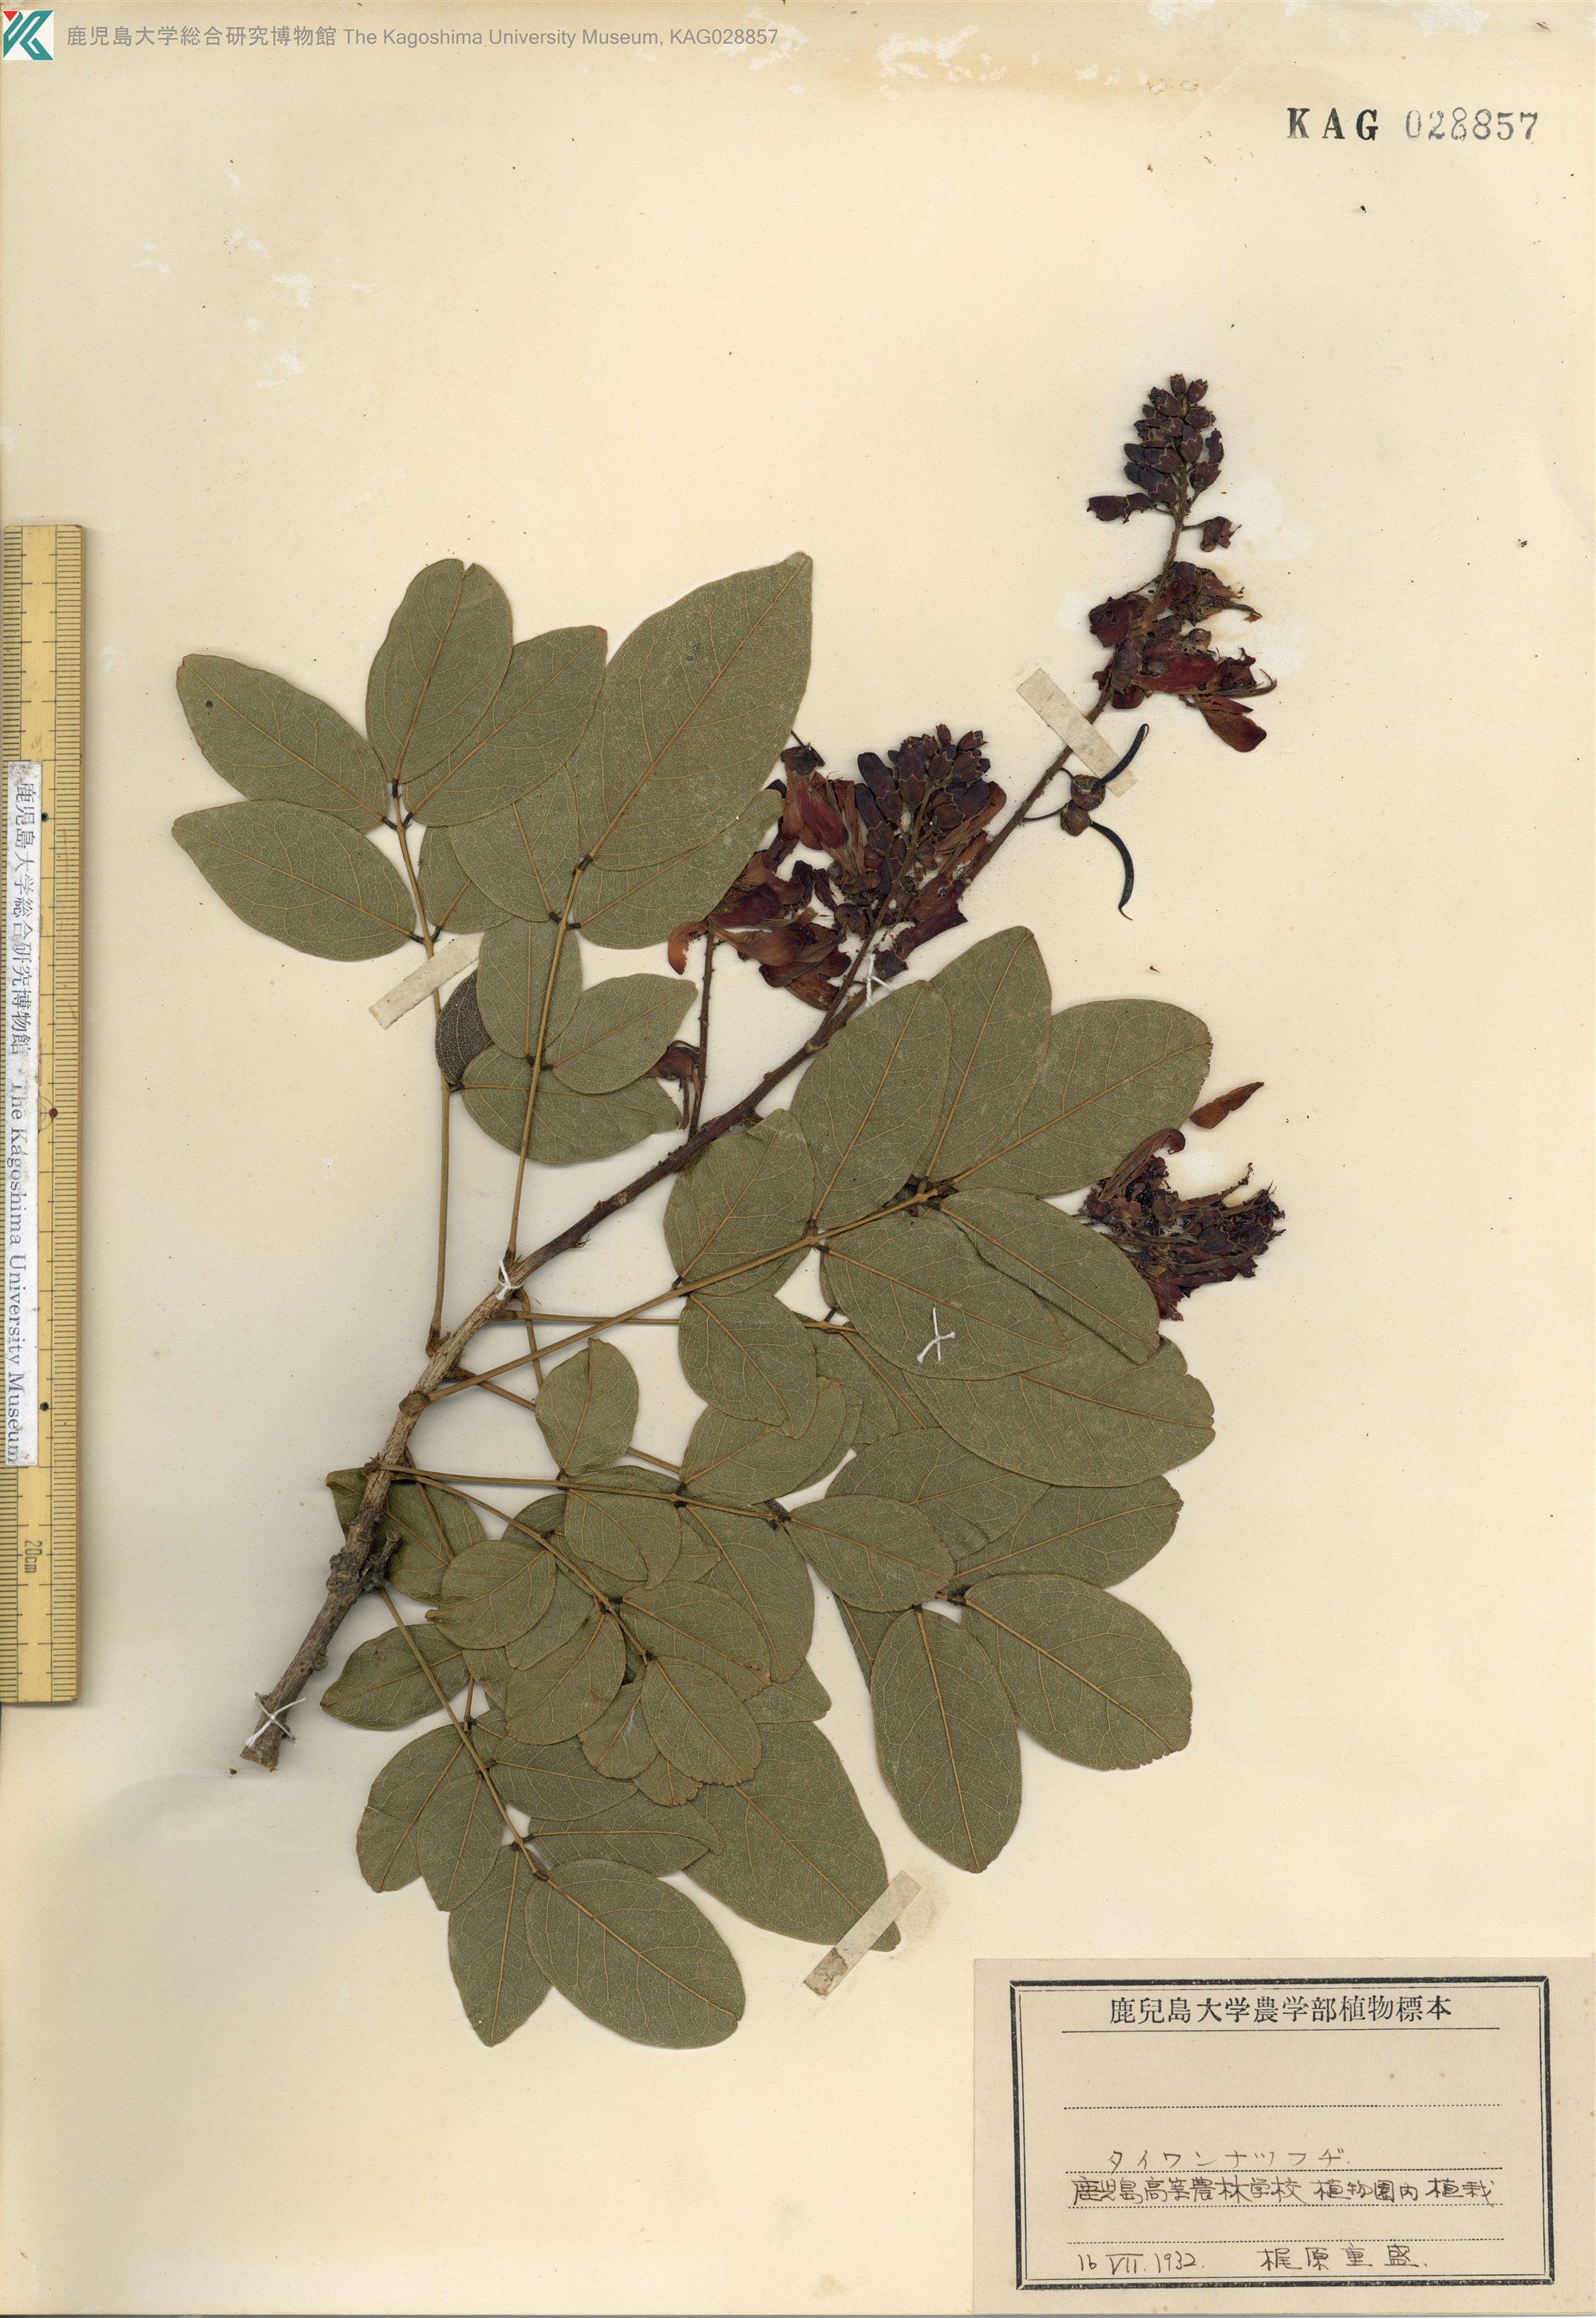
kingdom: Plantae
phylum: Tracheophyta
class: Magnoliopsida
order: Fabales
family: Fabaceae
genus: Wisteriopsis
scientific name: Wisteriopsis reticulata
